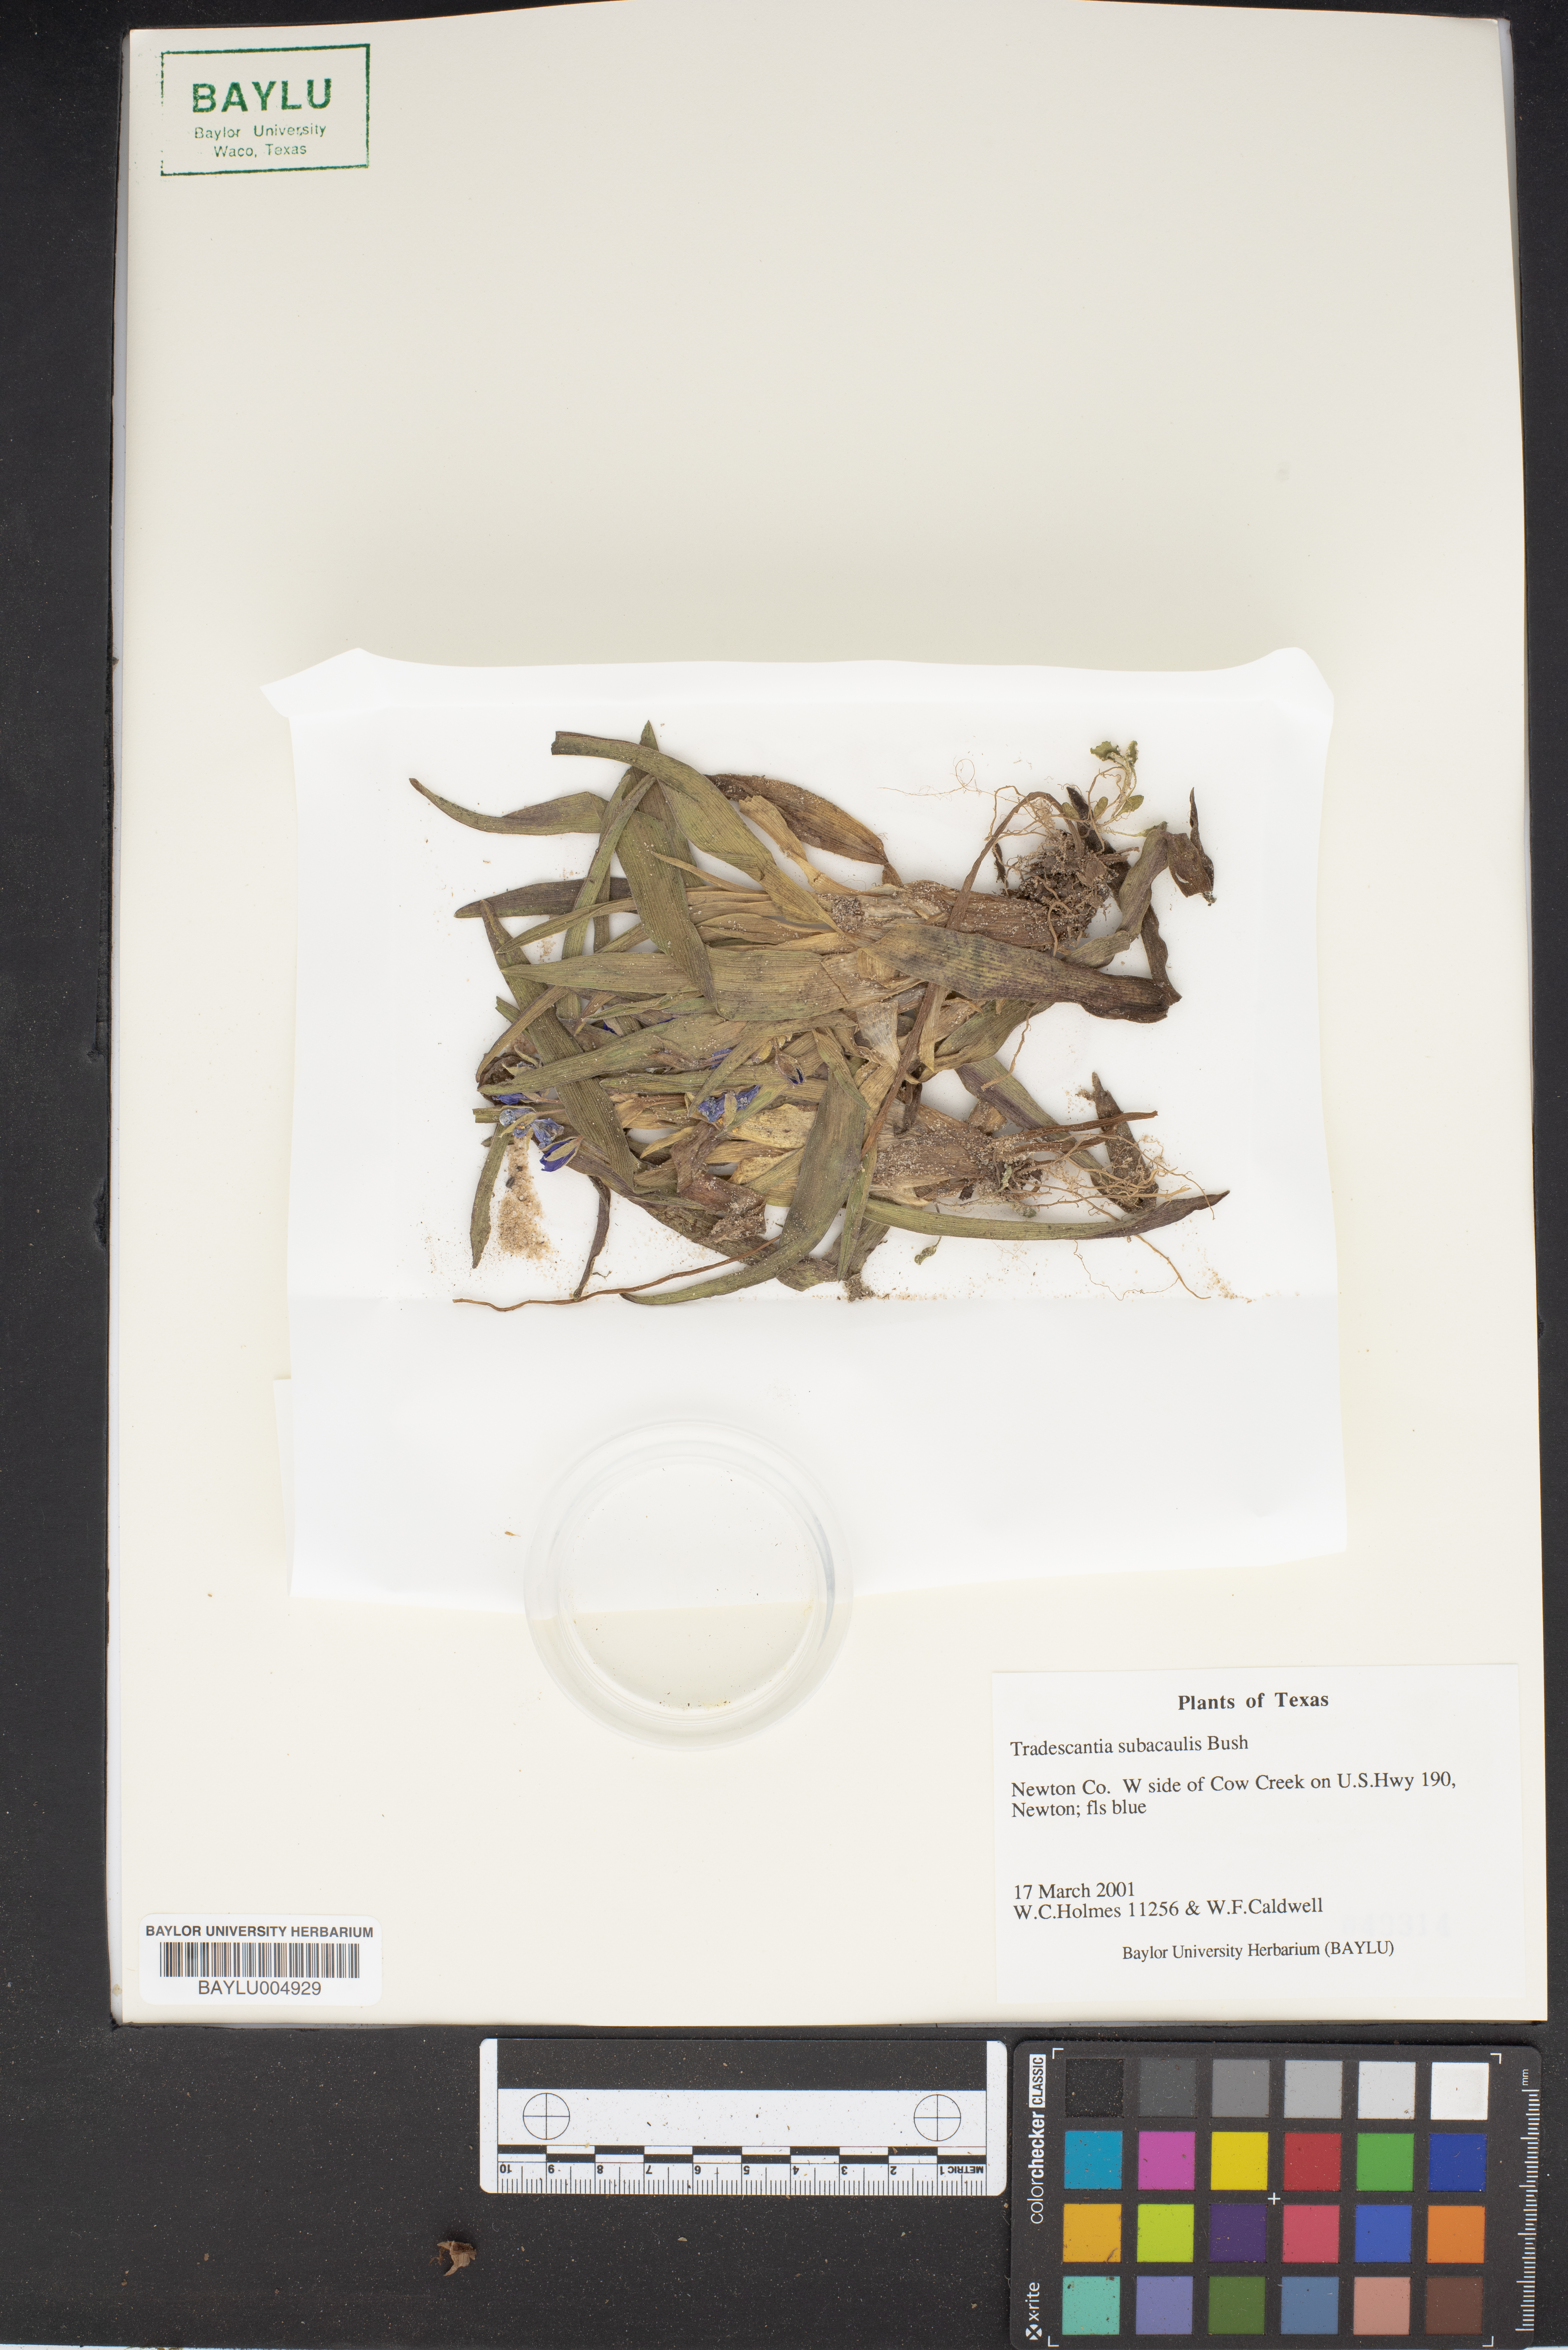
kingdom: Plantae
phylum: Tracheophyta
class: Liliopsida
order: Commelinales
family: Commelinaceae
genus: Tradescantia
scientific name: Tradescantia subacaulis
